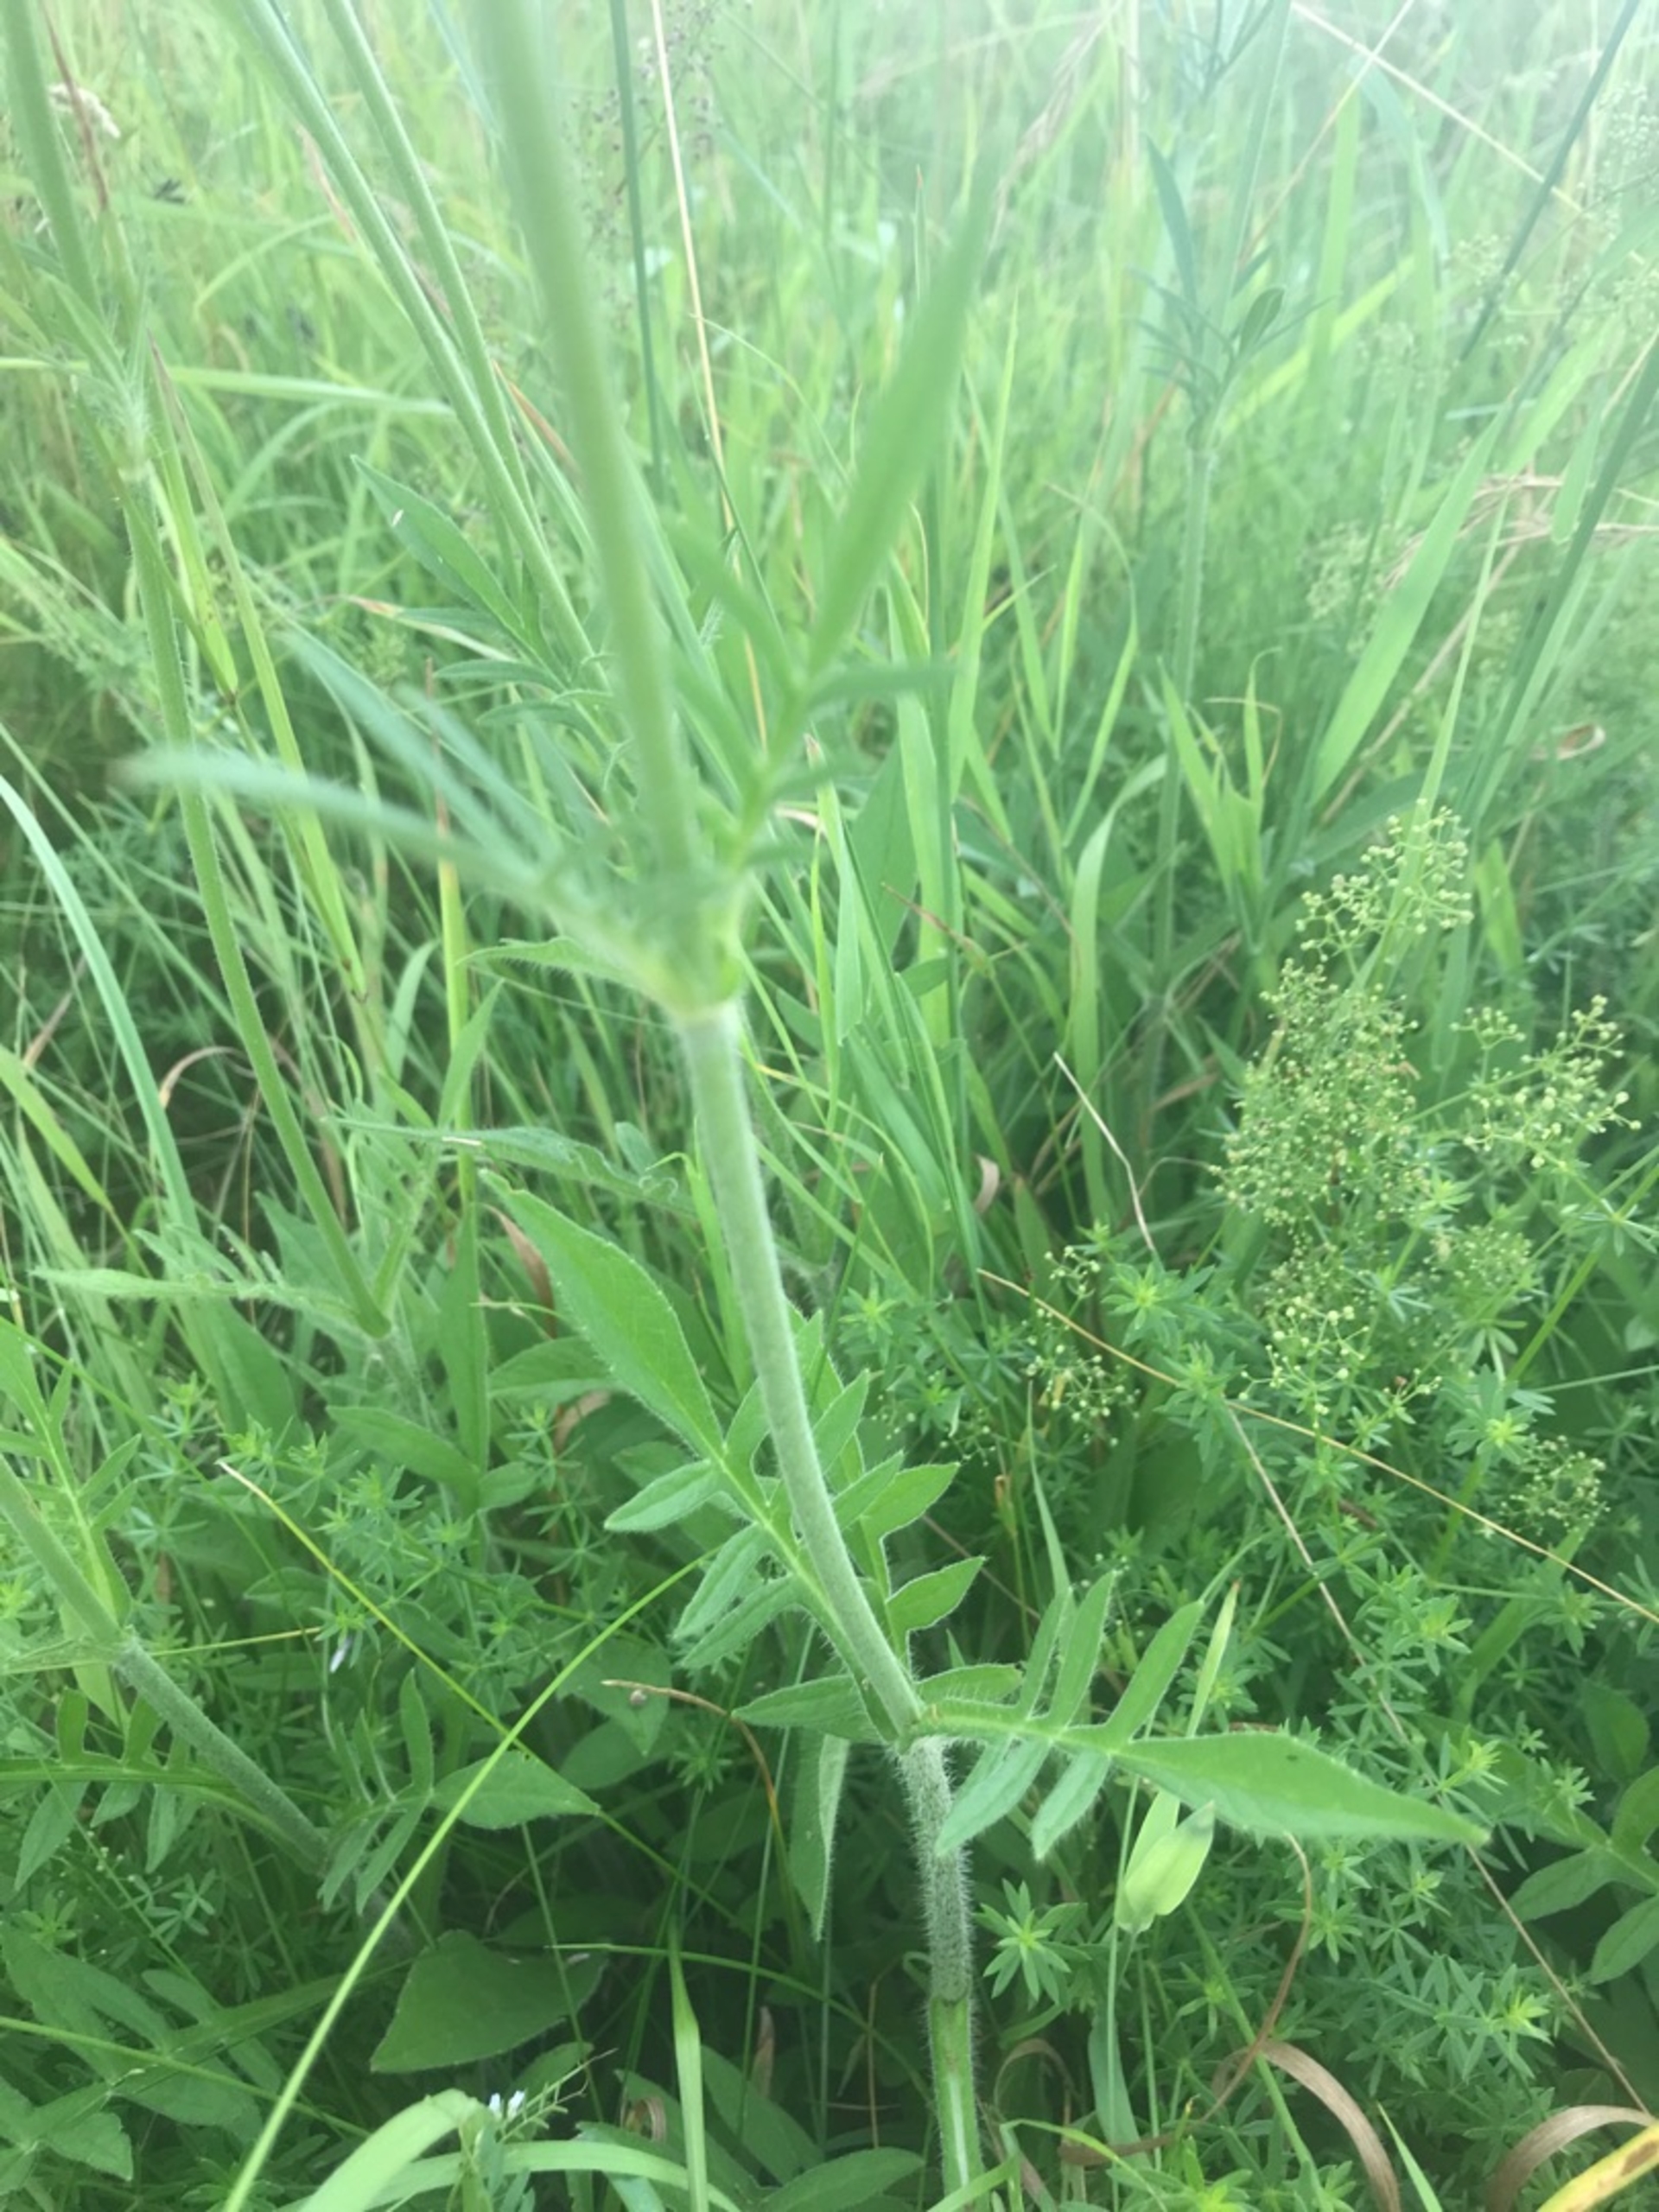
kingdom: Plantae
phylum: Tracheophyta
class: Magnoliopsida
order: Dipsacales
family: Caprifoliaceae
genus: Knautia
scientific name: Knautia arvensis
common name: Blåhat
